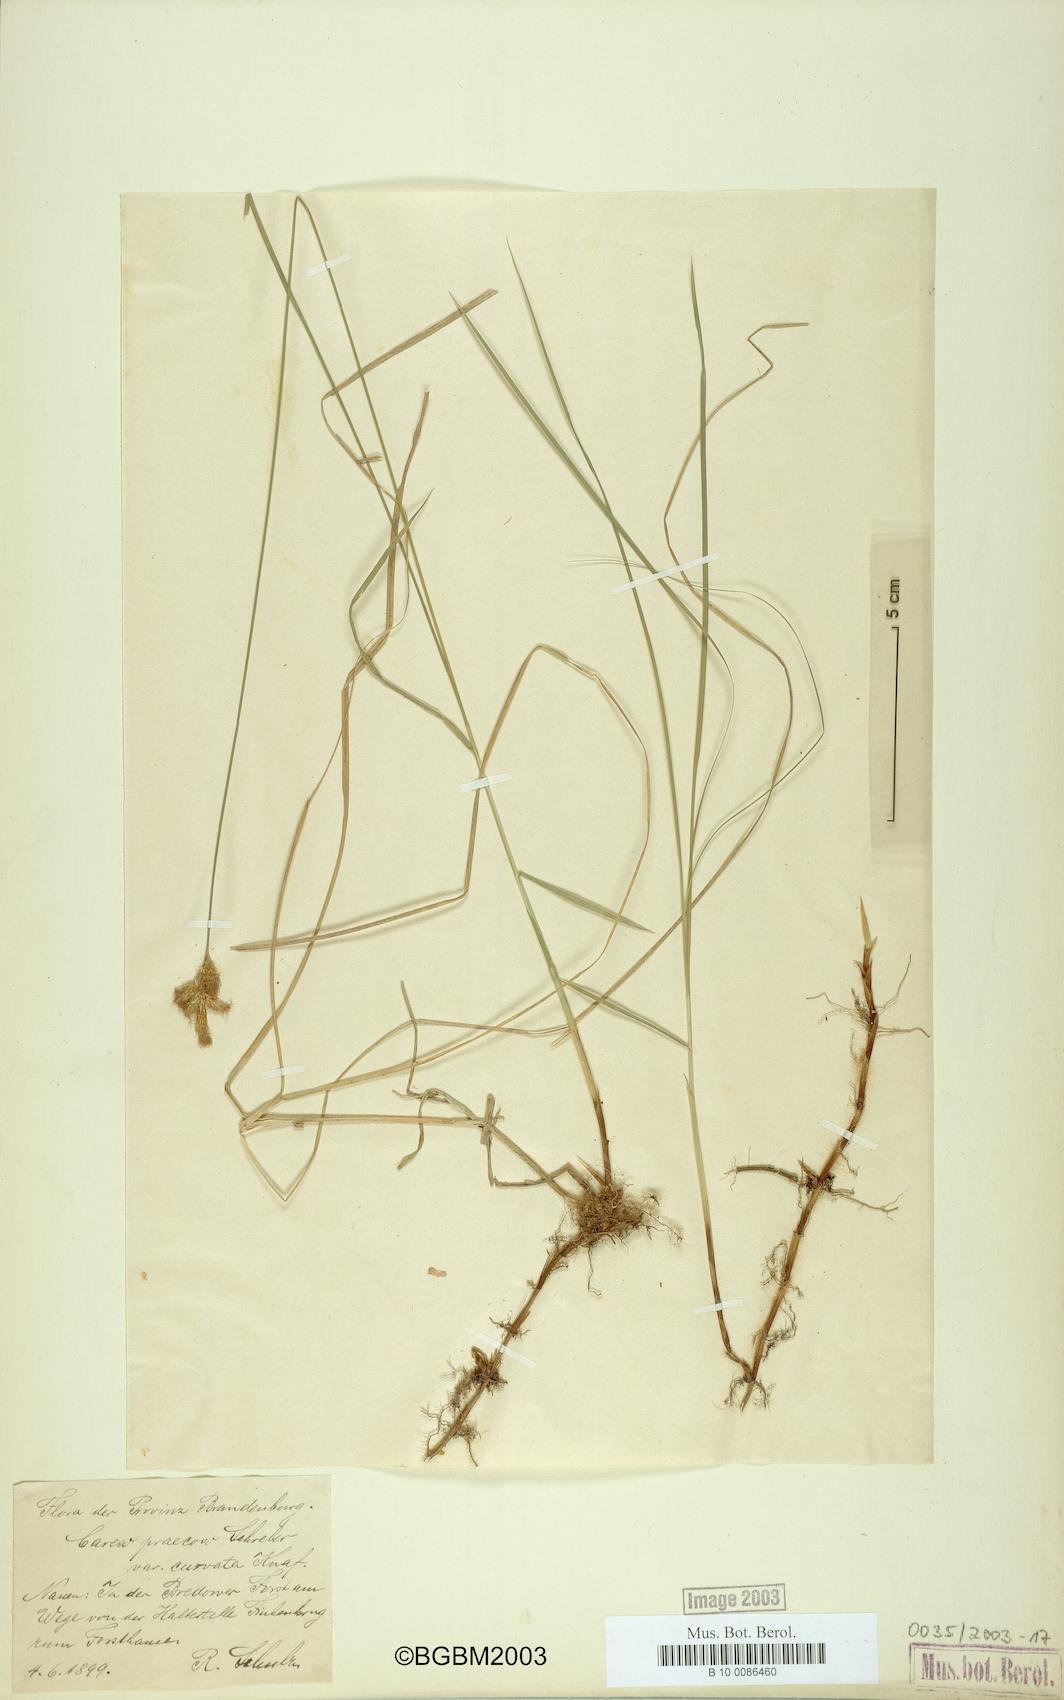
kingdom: Plantae
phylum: Tracheophyta
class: Liliopsida
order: Poales
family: Cyperaceae
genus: Carex
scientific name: Carex curvata
